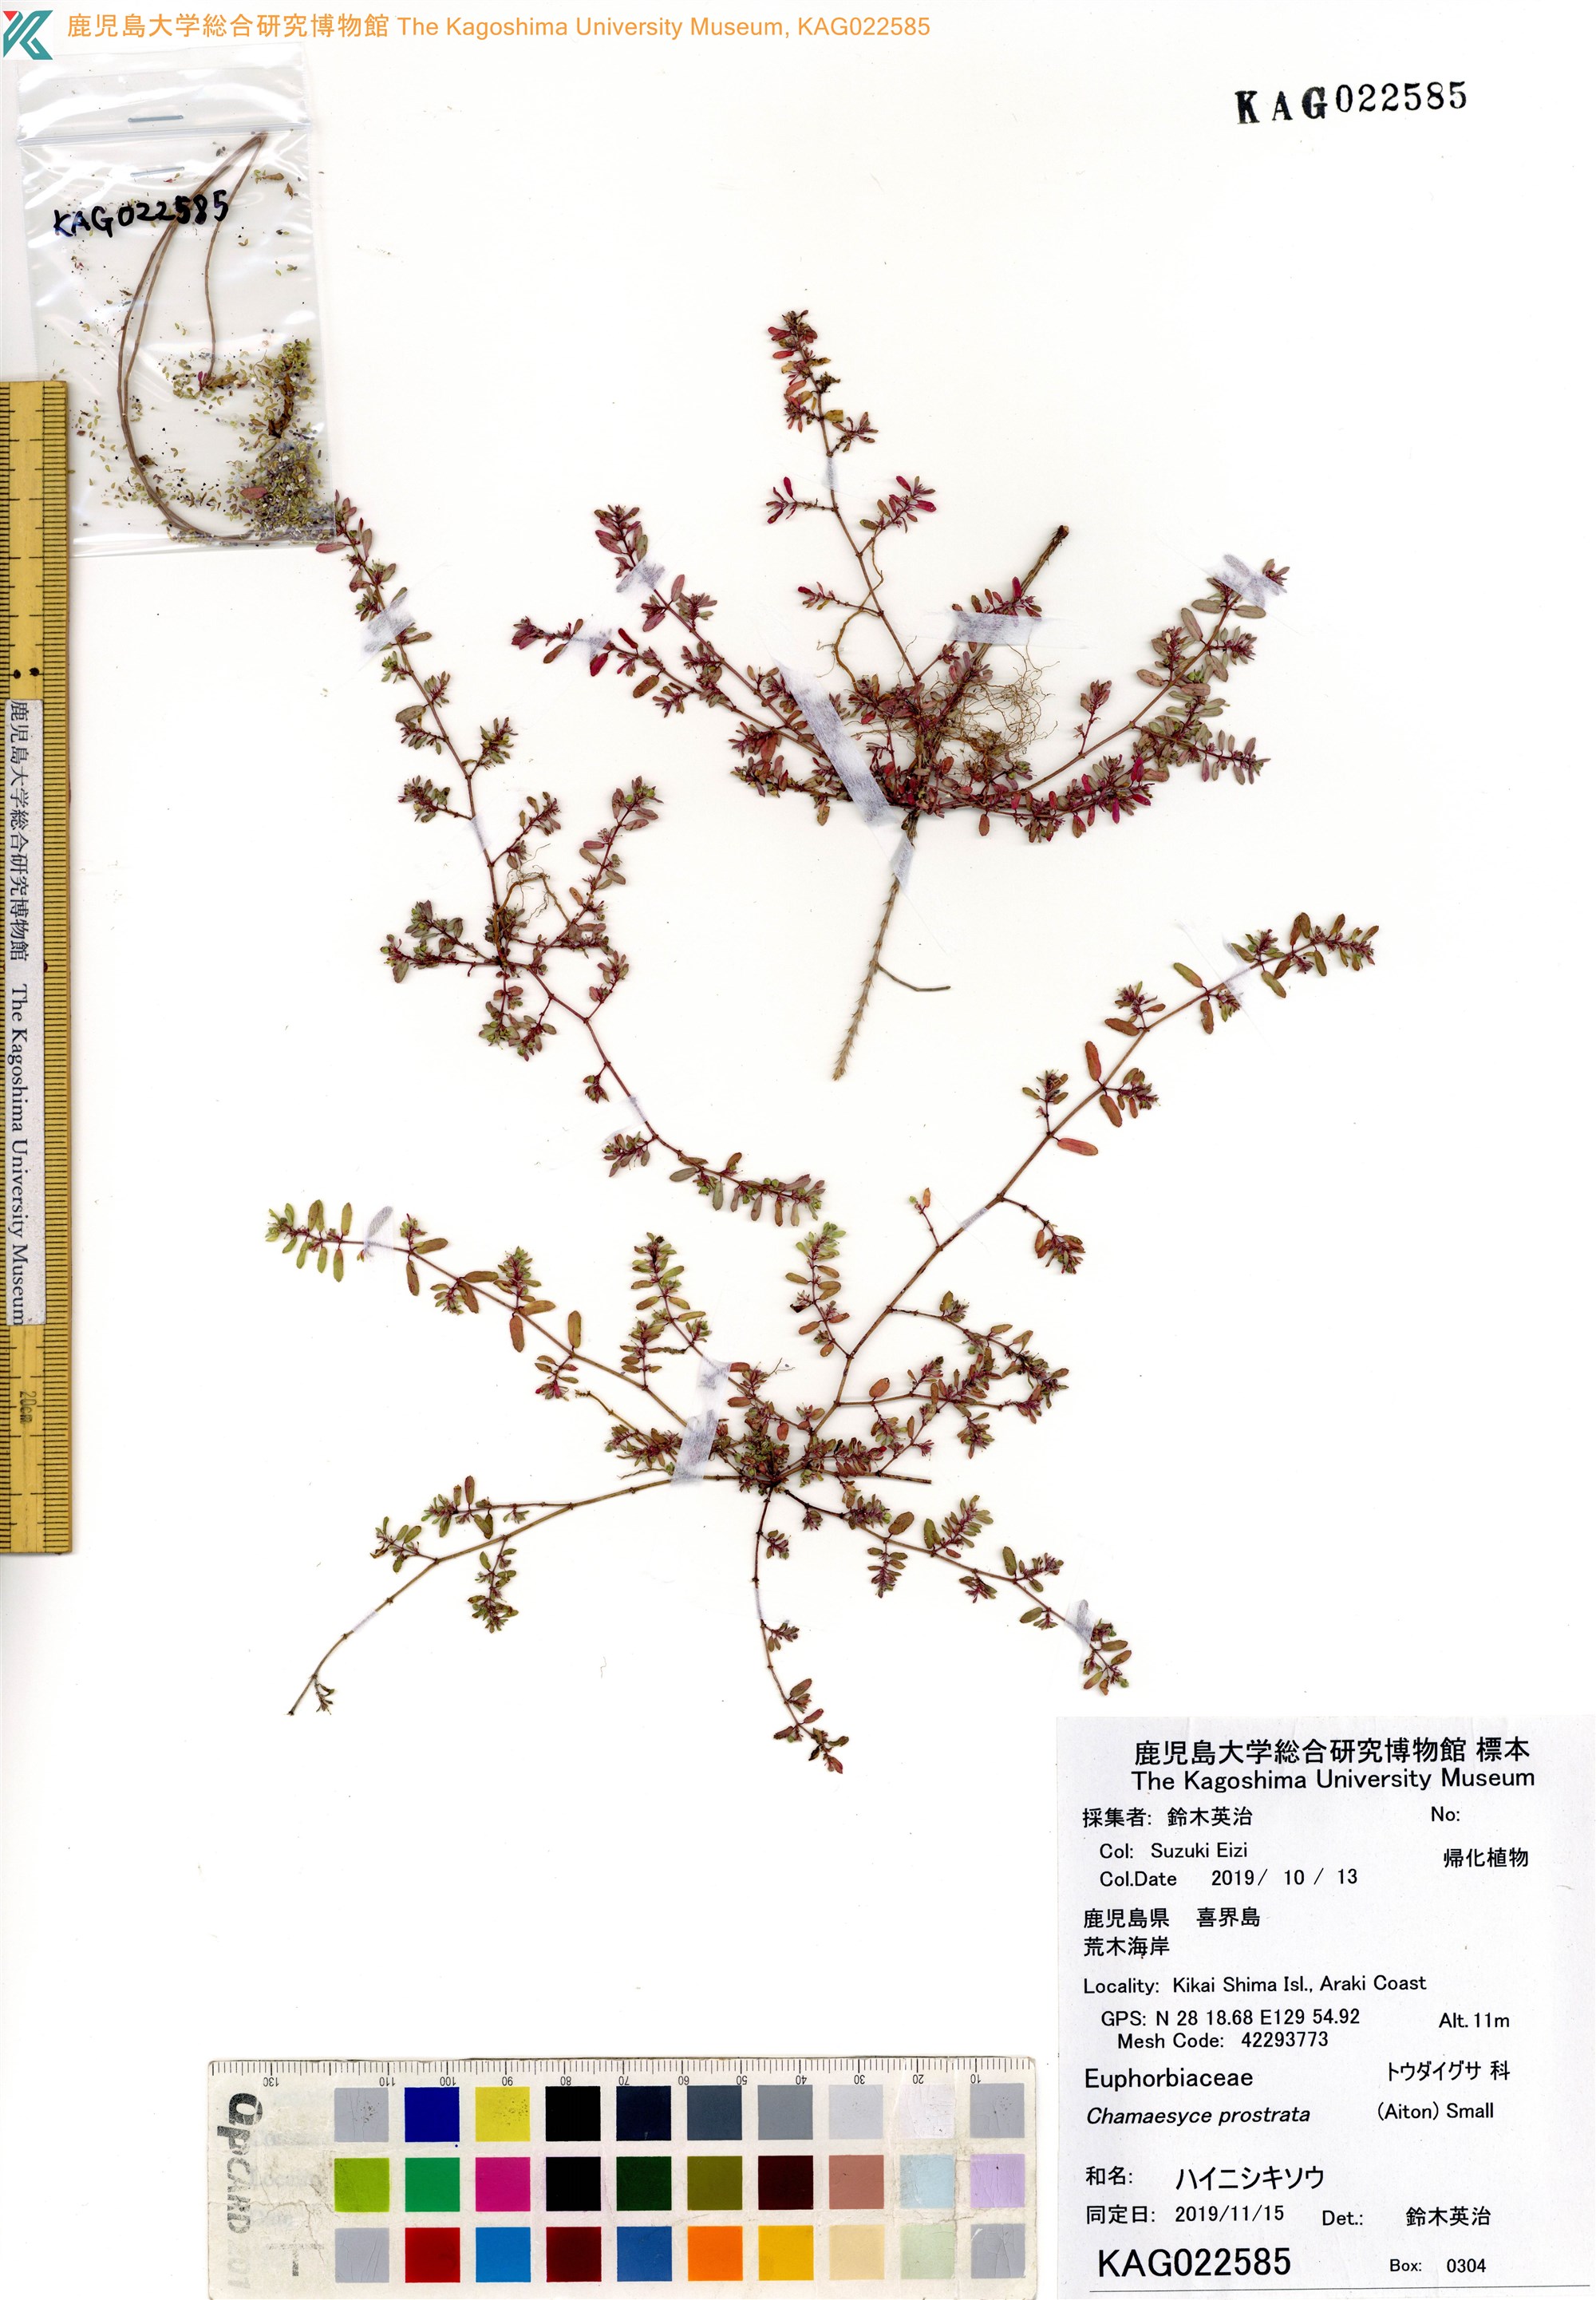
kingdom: Plantae
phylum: Tracheophyta
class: Magnoliopsida
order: Malpighiales
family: Euphorbiaceae
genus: Euphorbia
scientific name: Euphorbia prostrata
